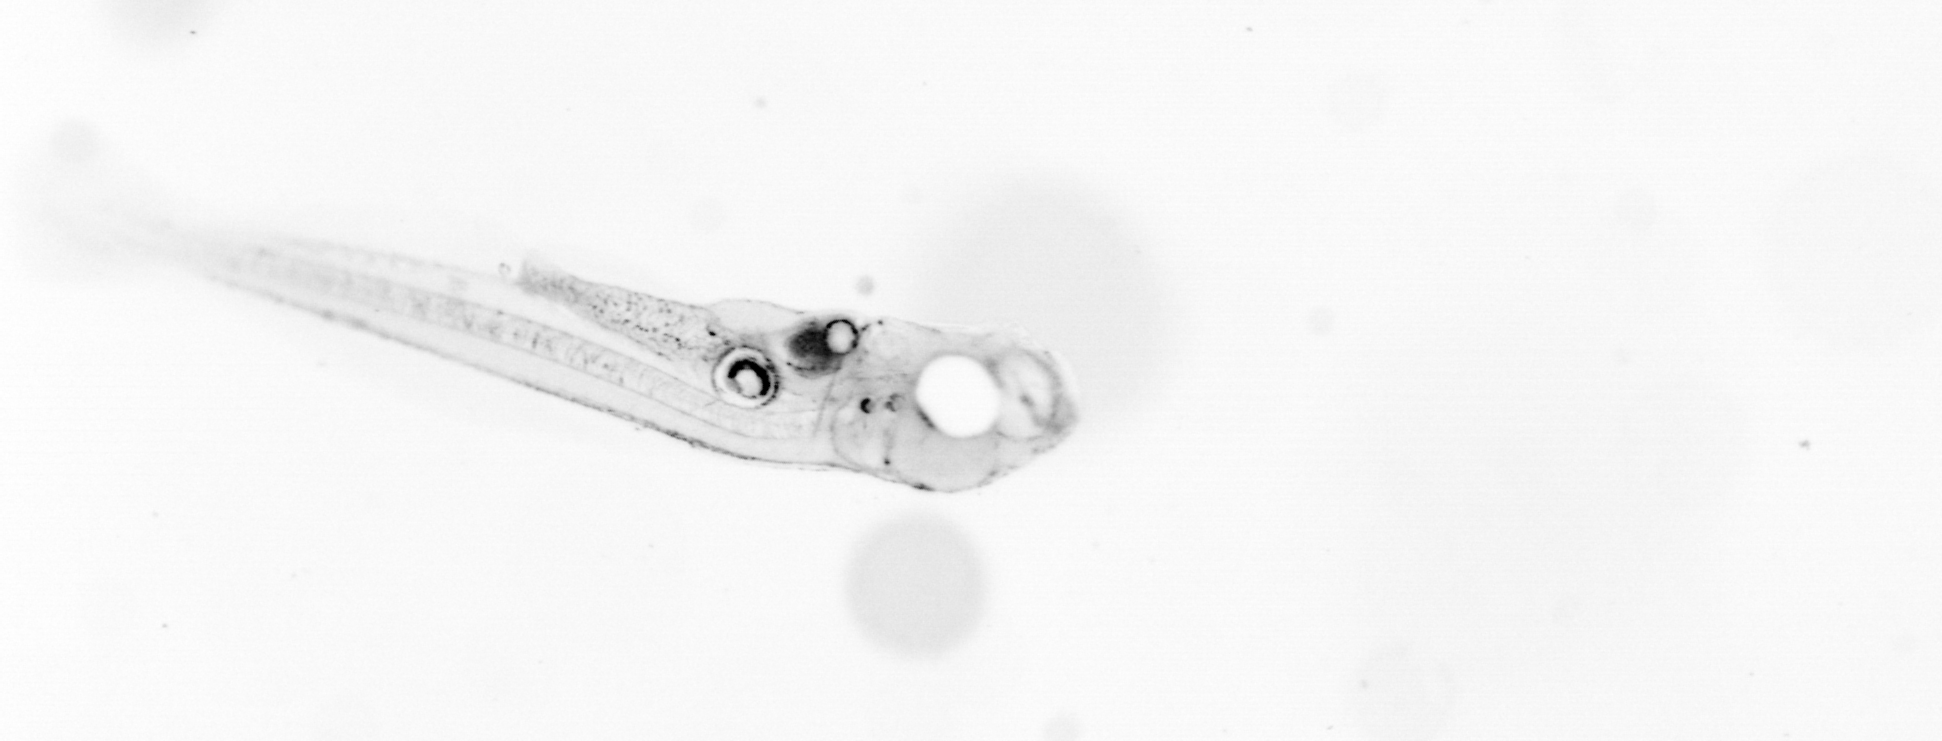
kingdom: Animalia
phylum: Chordata
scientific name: Chordata
